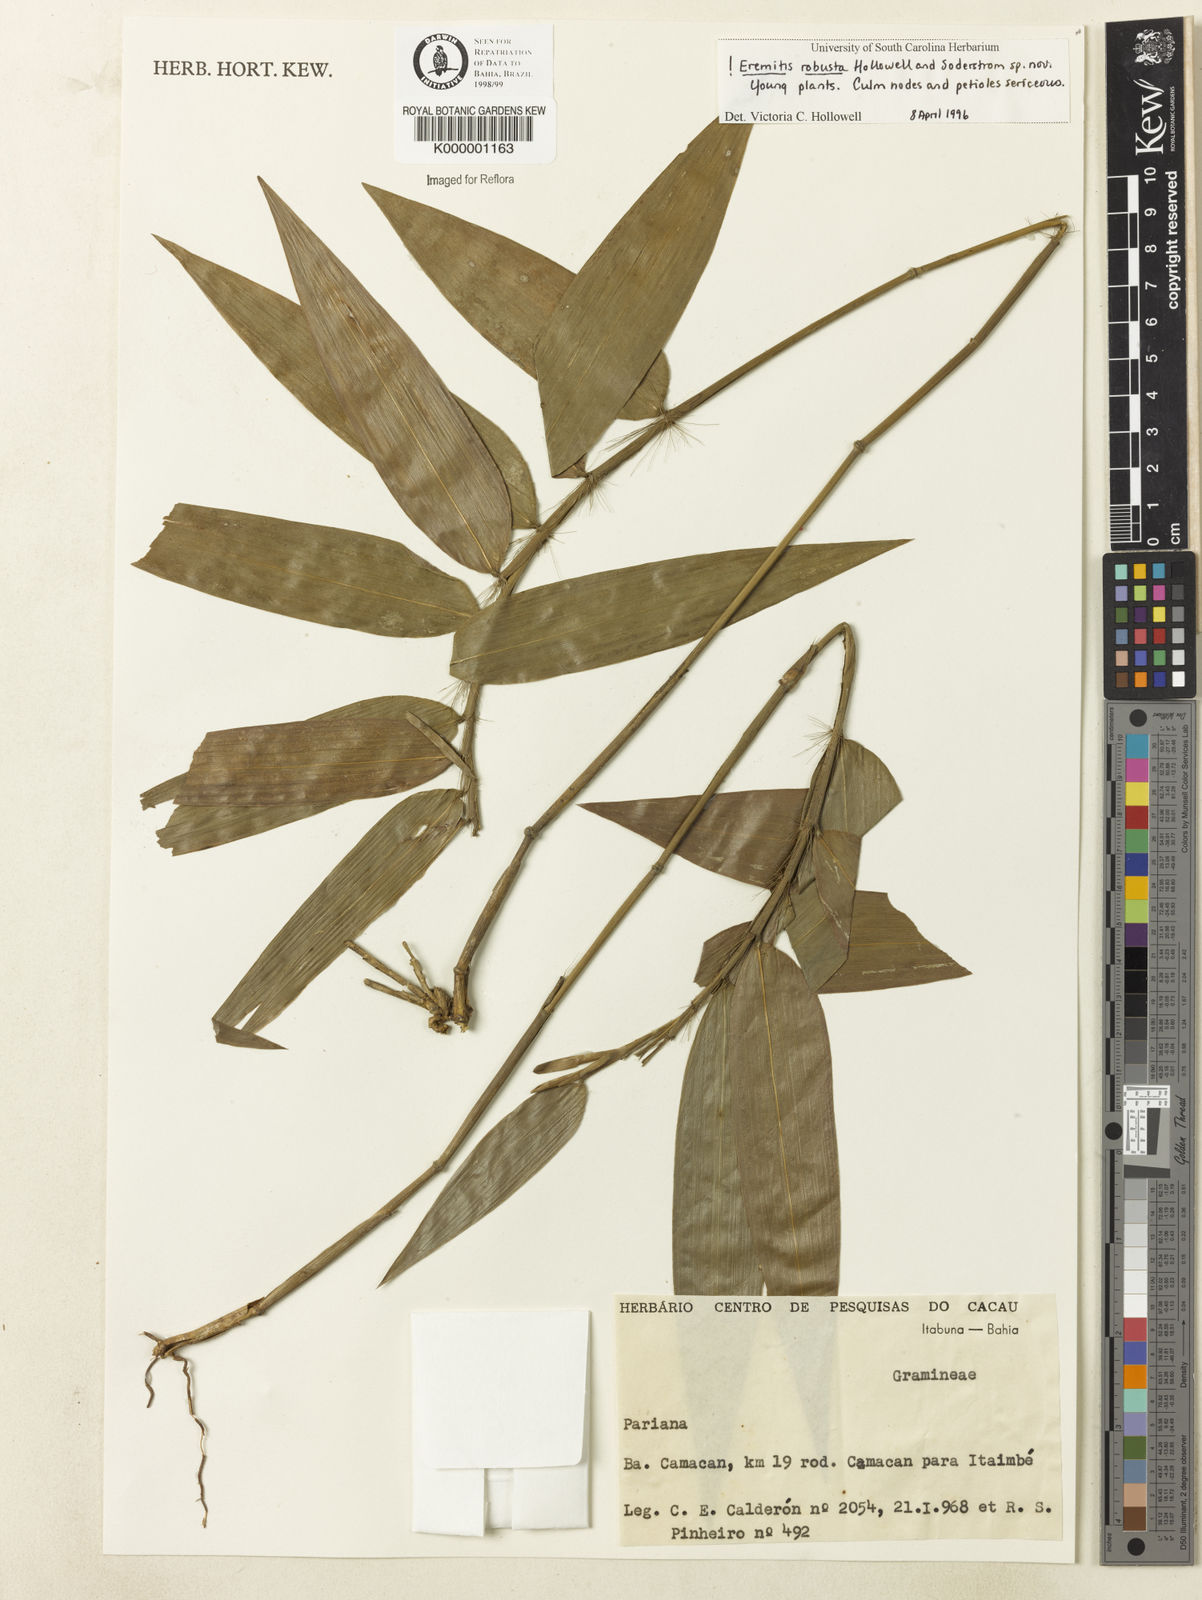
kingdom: Plantae
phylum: Tracheophyta
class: Liliopsida
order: Poales
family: Poaceae
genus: Eremitis
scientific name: Eremitis
